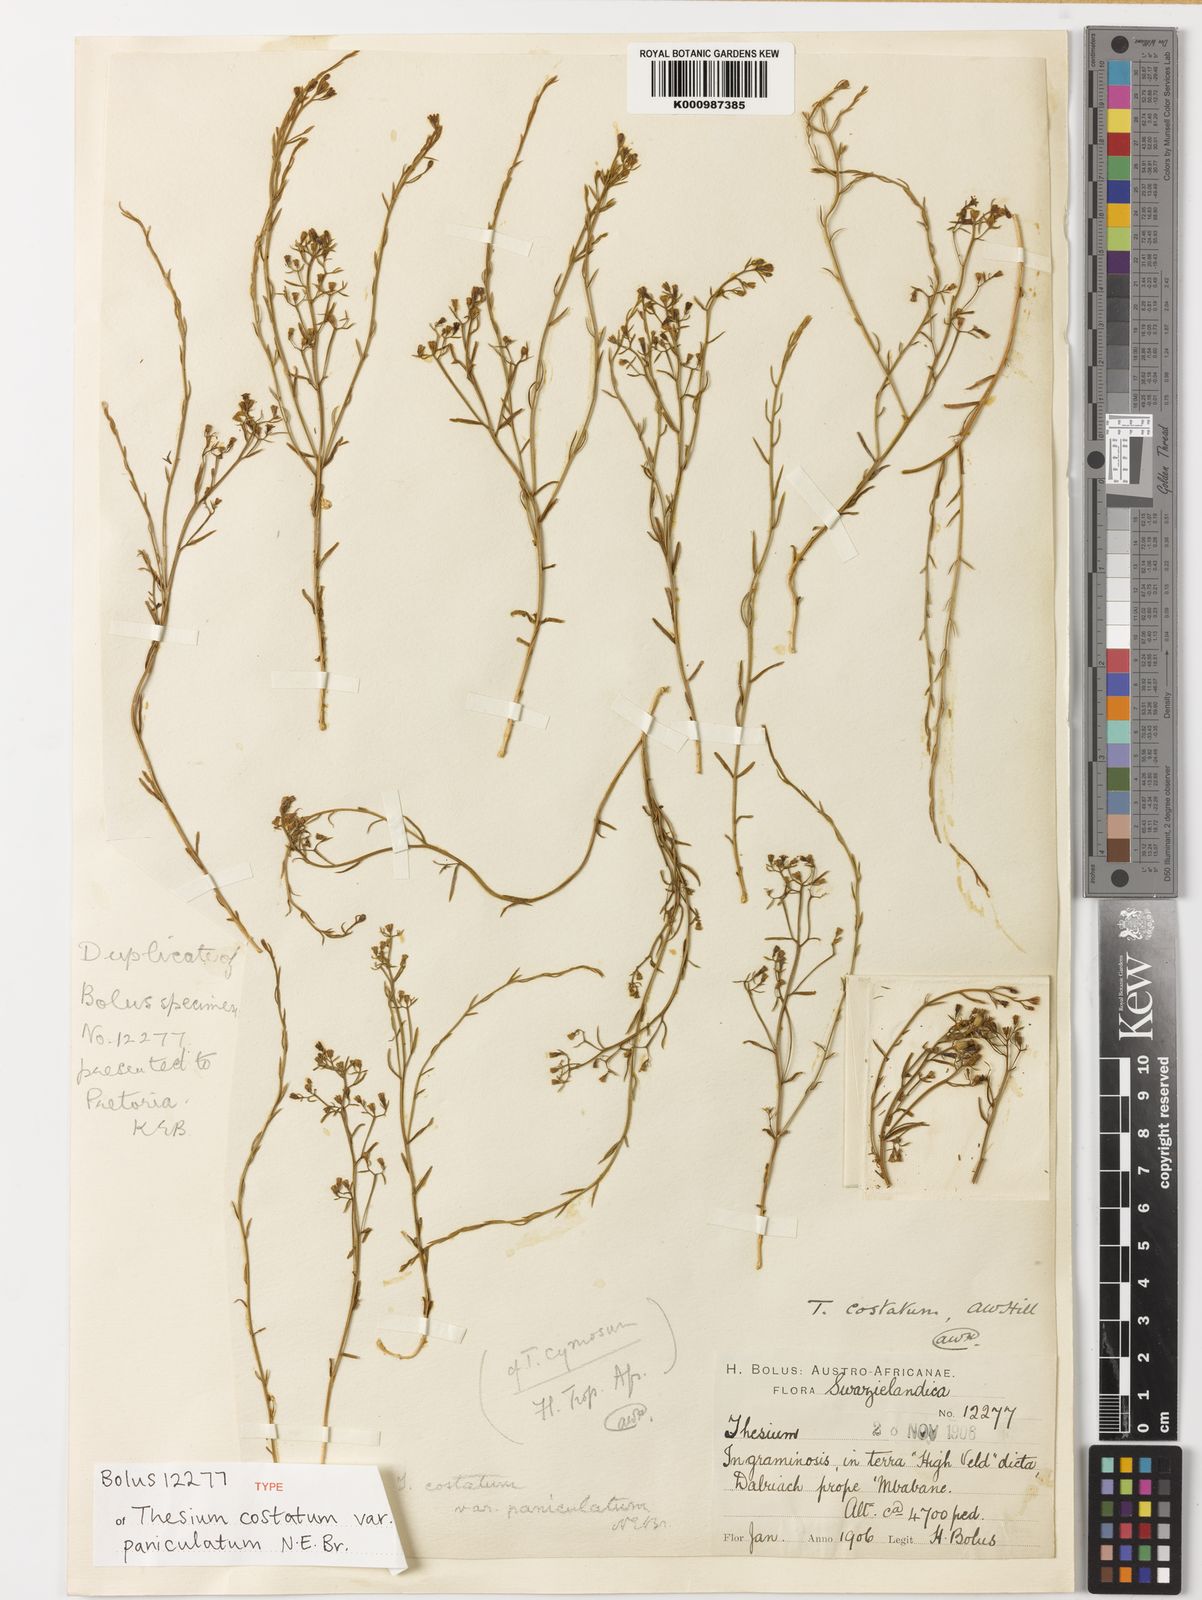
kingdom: Plantae
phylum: Tracheophyta
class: Magnoliopsida
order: Santalales
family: Thesiaceae
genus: Thesium
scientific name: Thesium costatum
